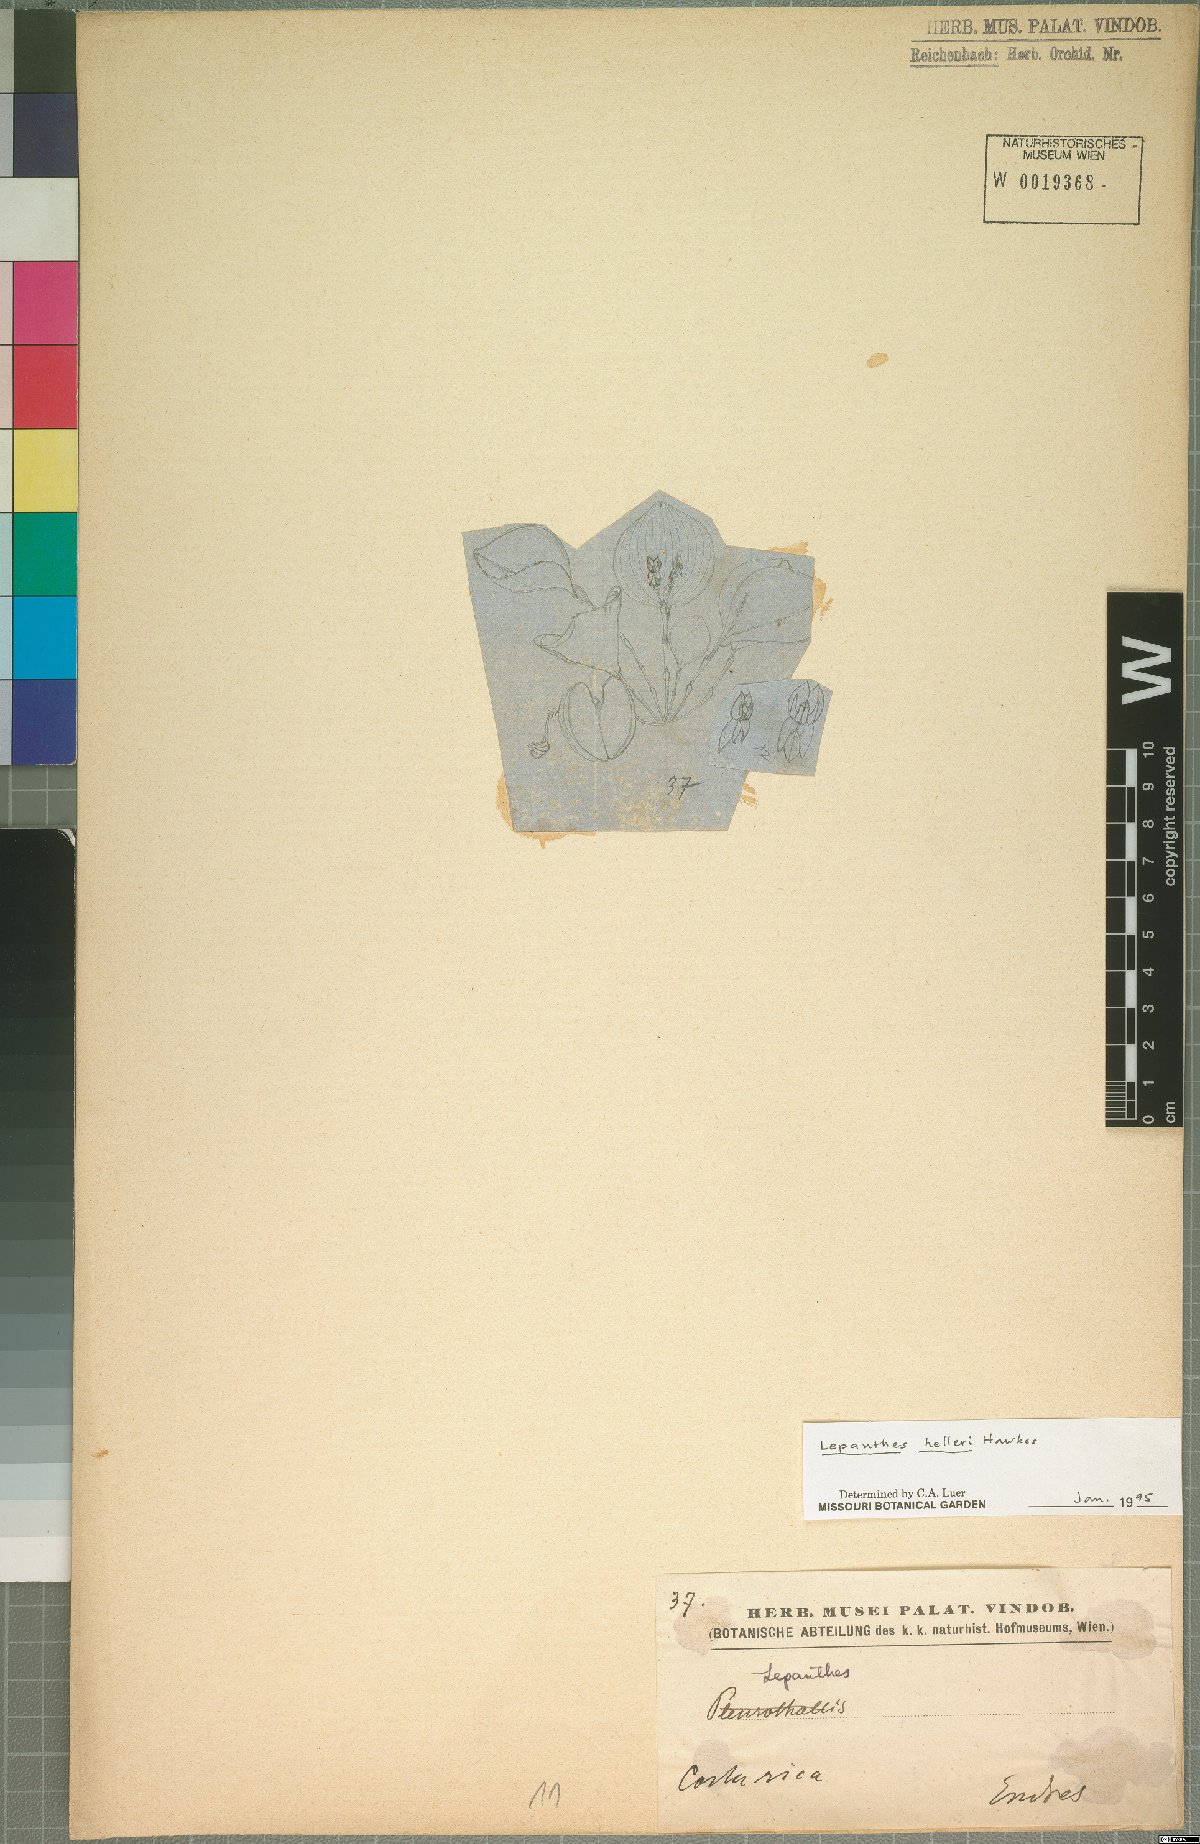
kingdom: Plantae
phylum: Tracheophyta
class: Liliopsida
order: Asparagales
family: Orchidaceae
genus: Lepanthes
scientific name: Lepanthes helleri
